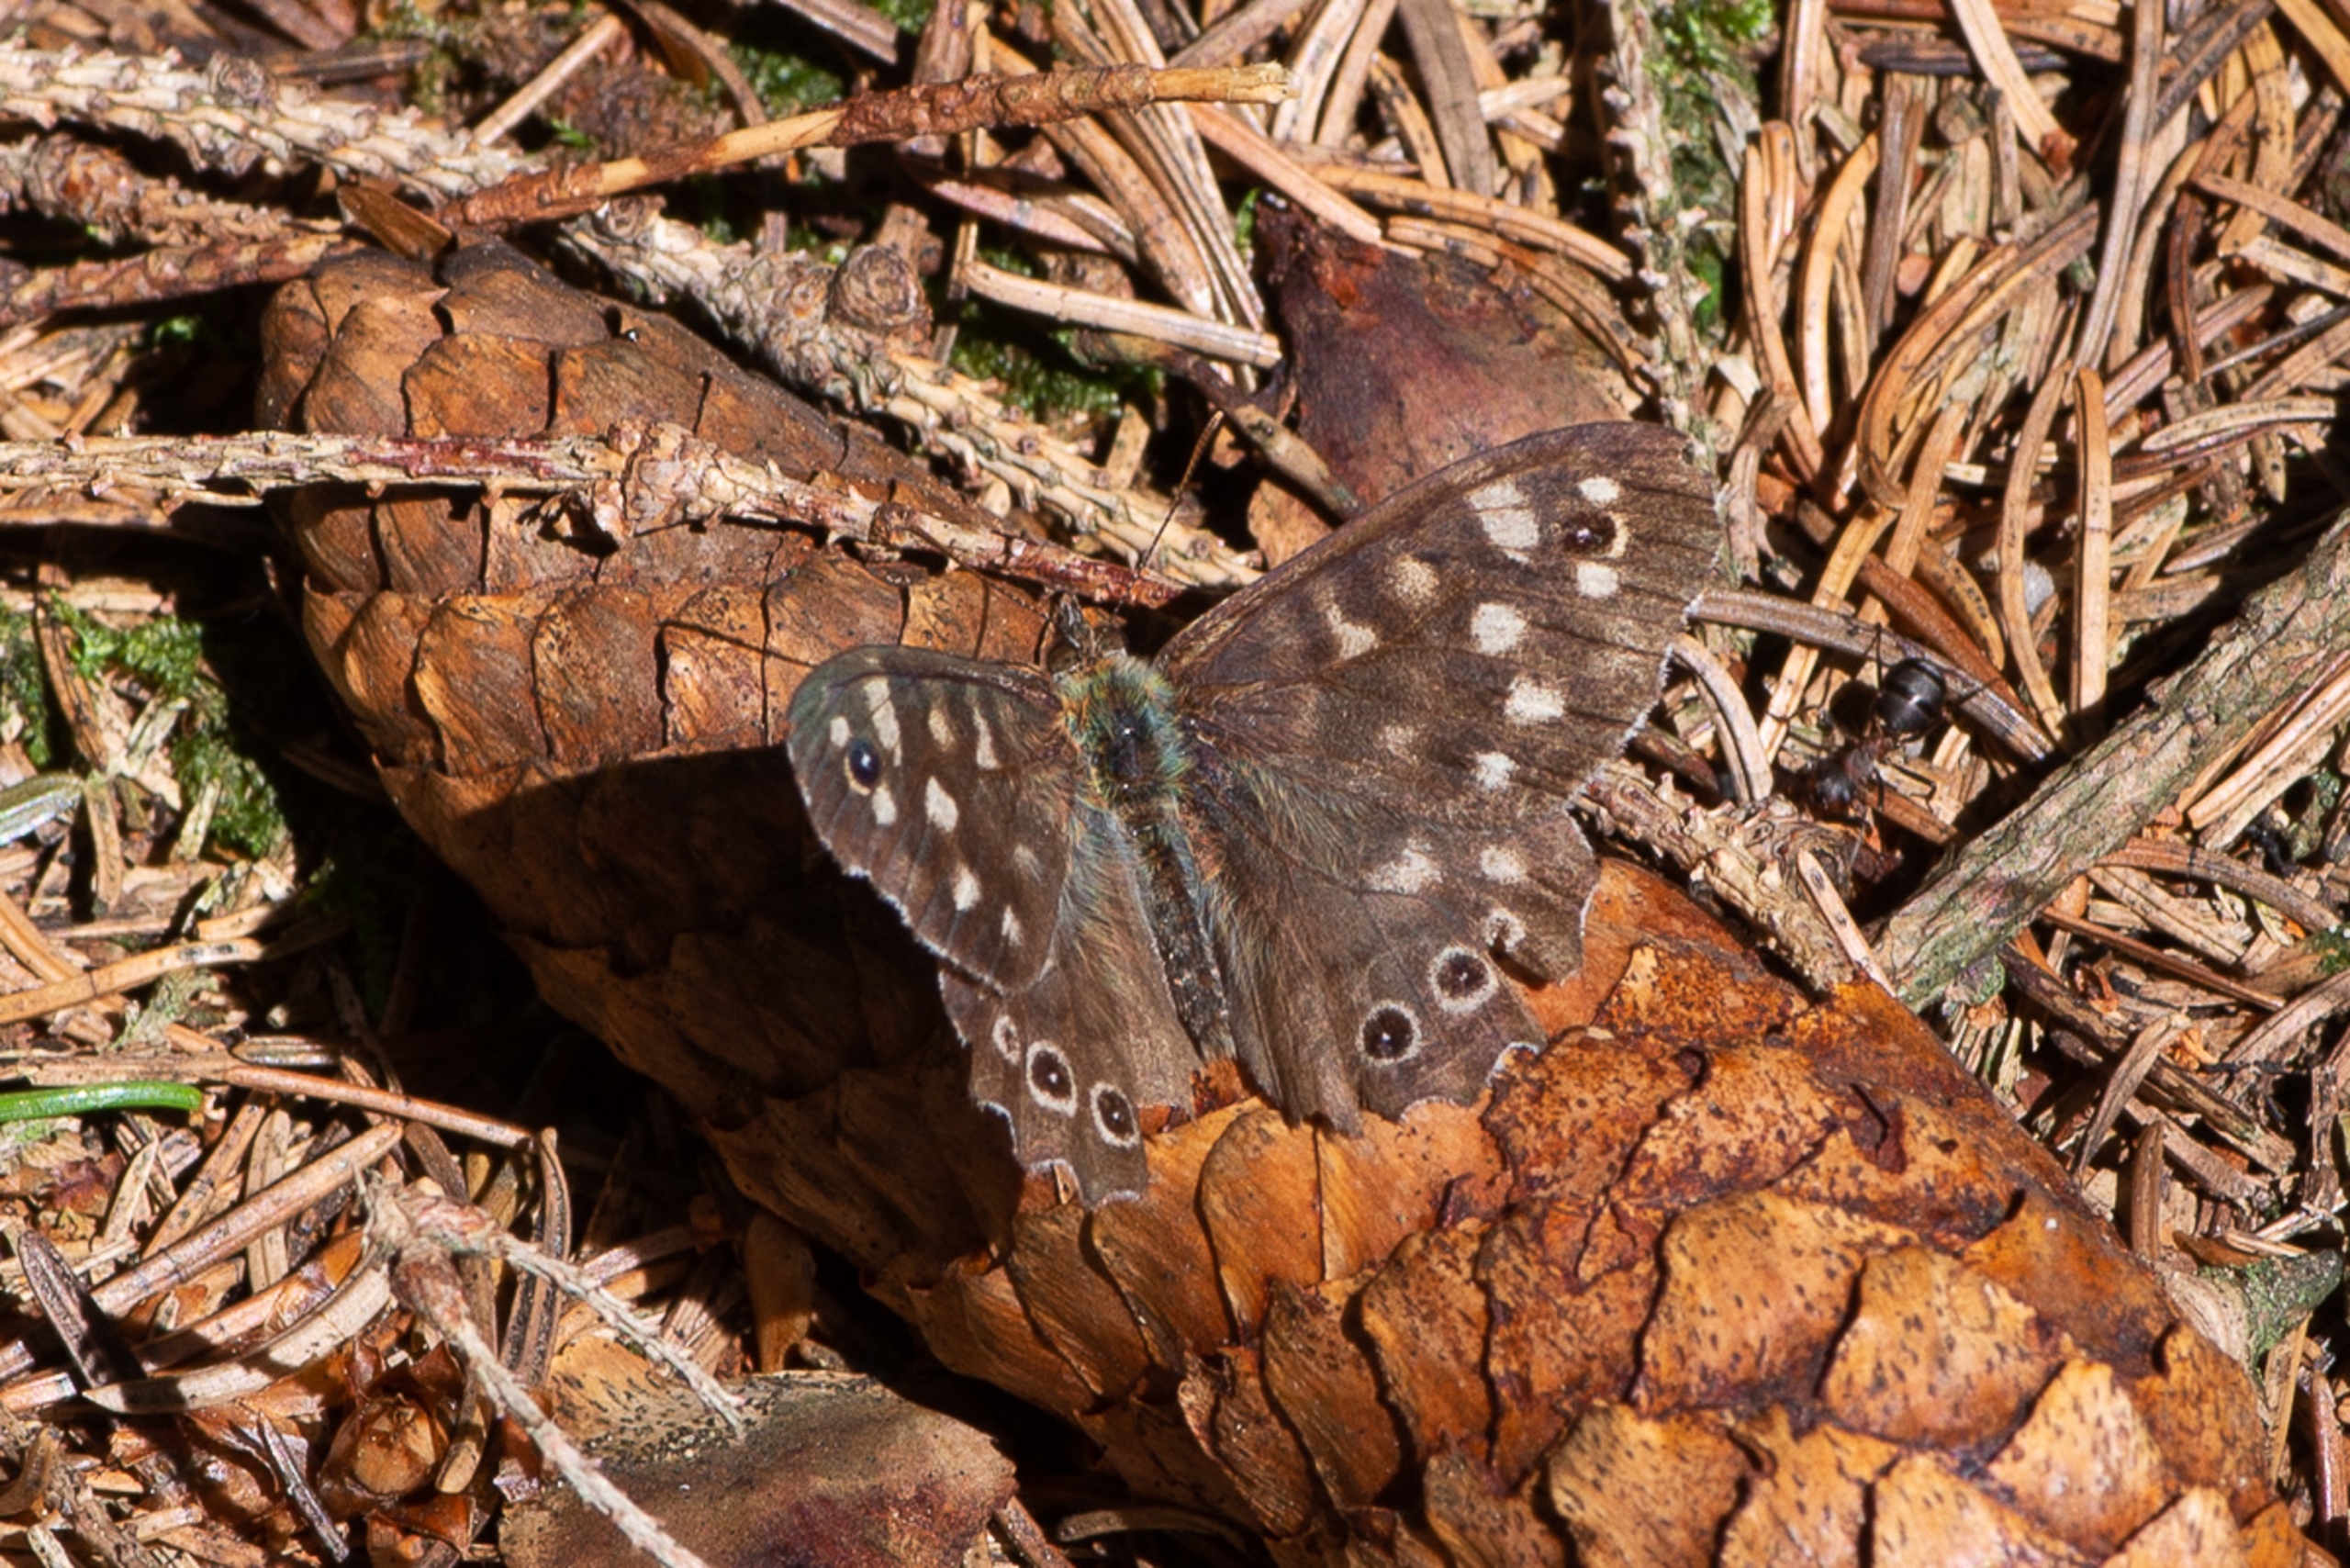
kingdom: Animalia
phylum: Arthropoda
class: Insecta
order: Lepidoptera
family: Nymphalidae
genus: Pararge
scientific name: Pararge aegeria
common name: Skovrandøje
